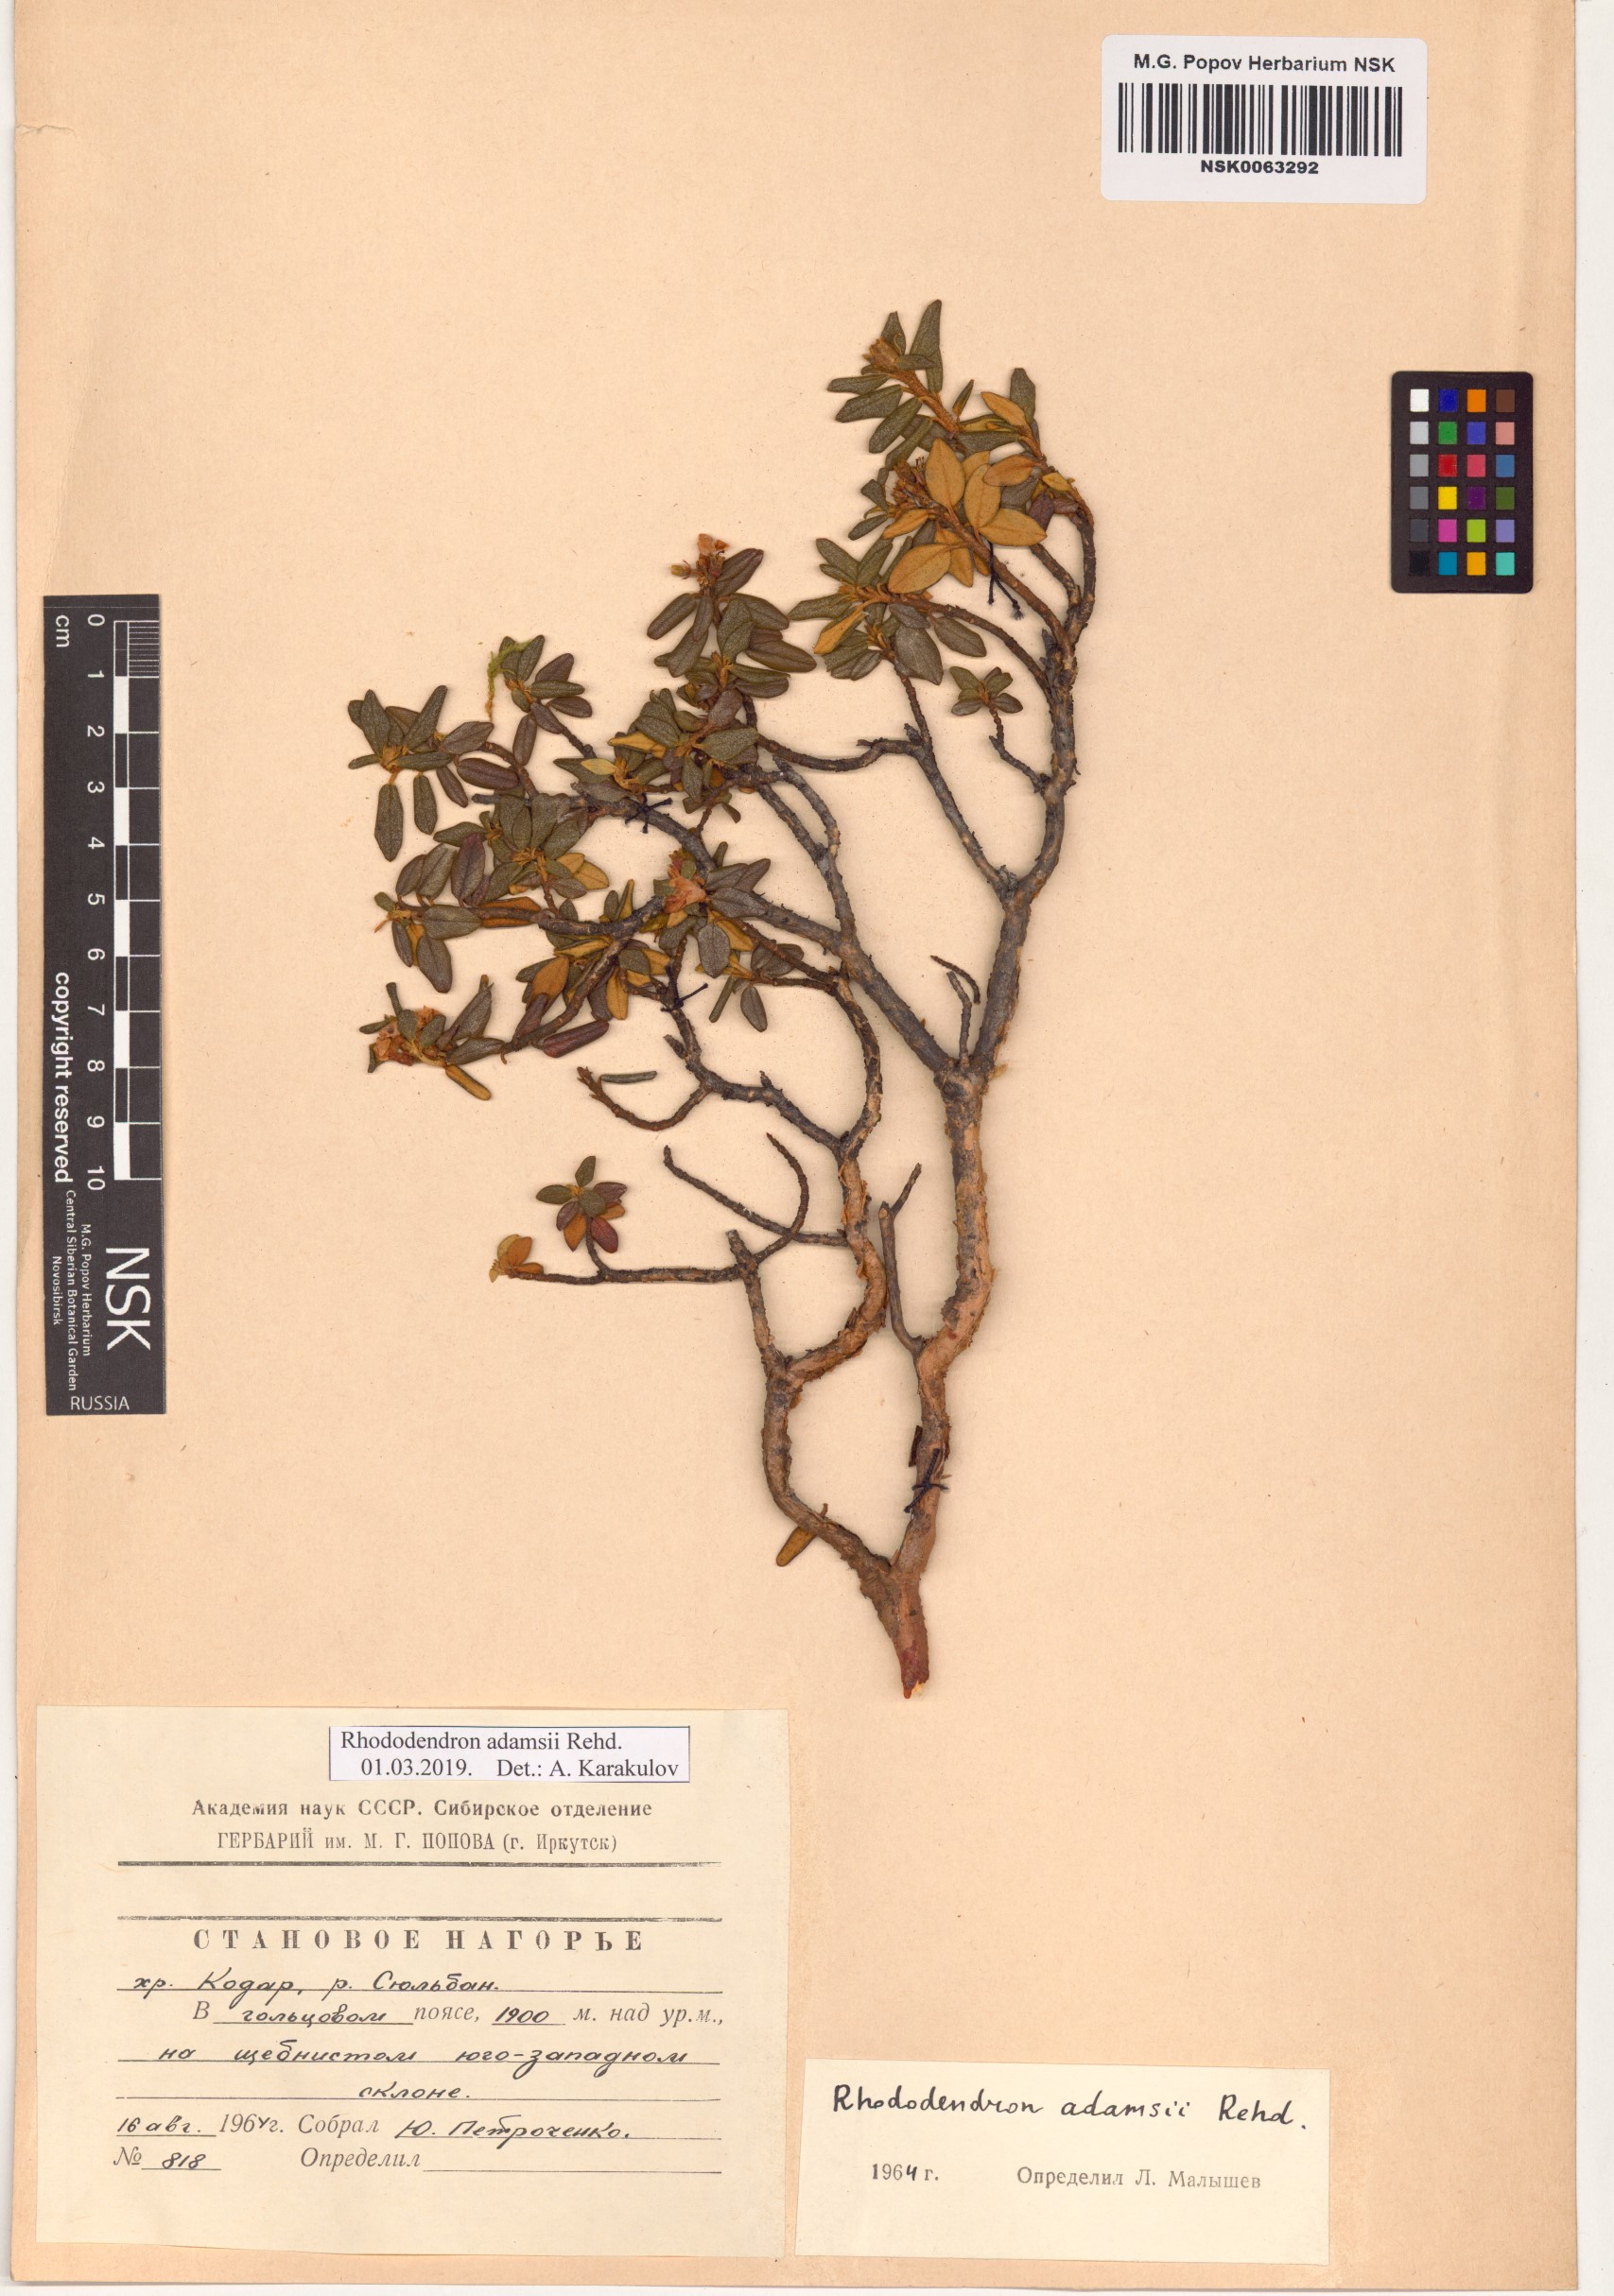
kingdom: Plantae
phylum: Tracheophyta
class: Magnoliopsida
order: Ericales
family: Ericaceae
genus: Rhododendron
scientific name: Rhododendron adamsii
